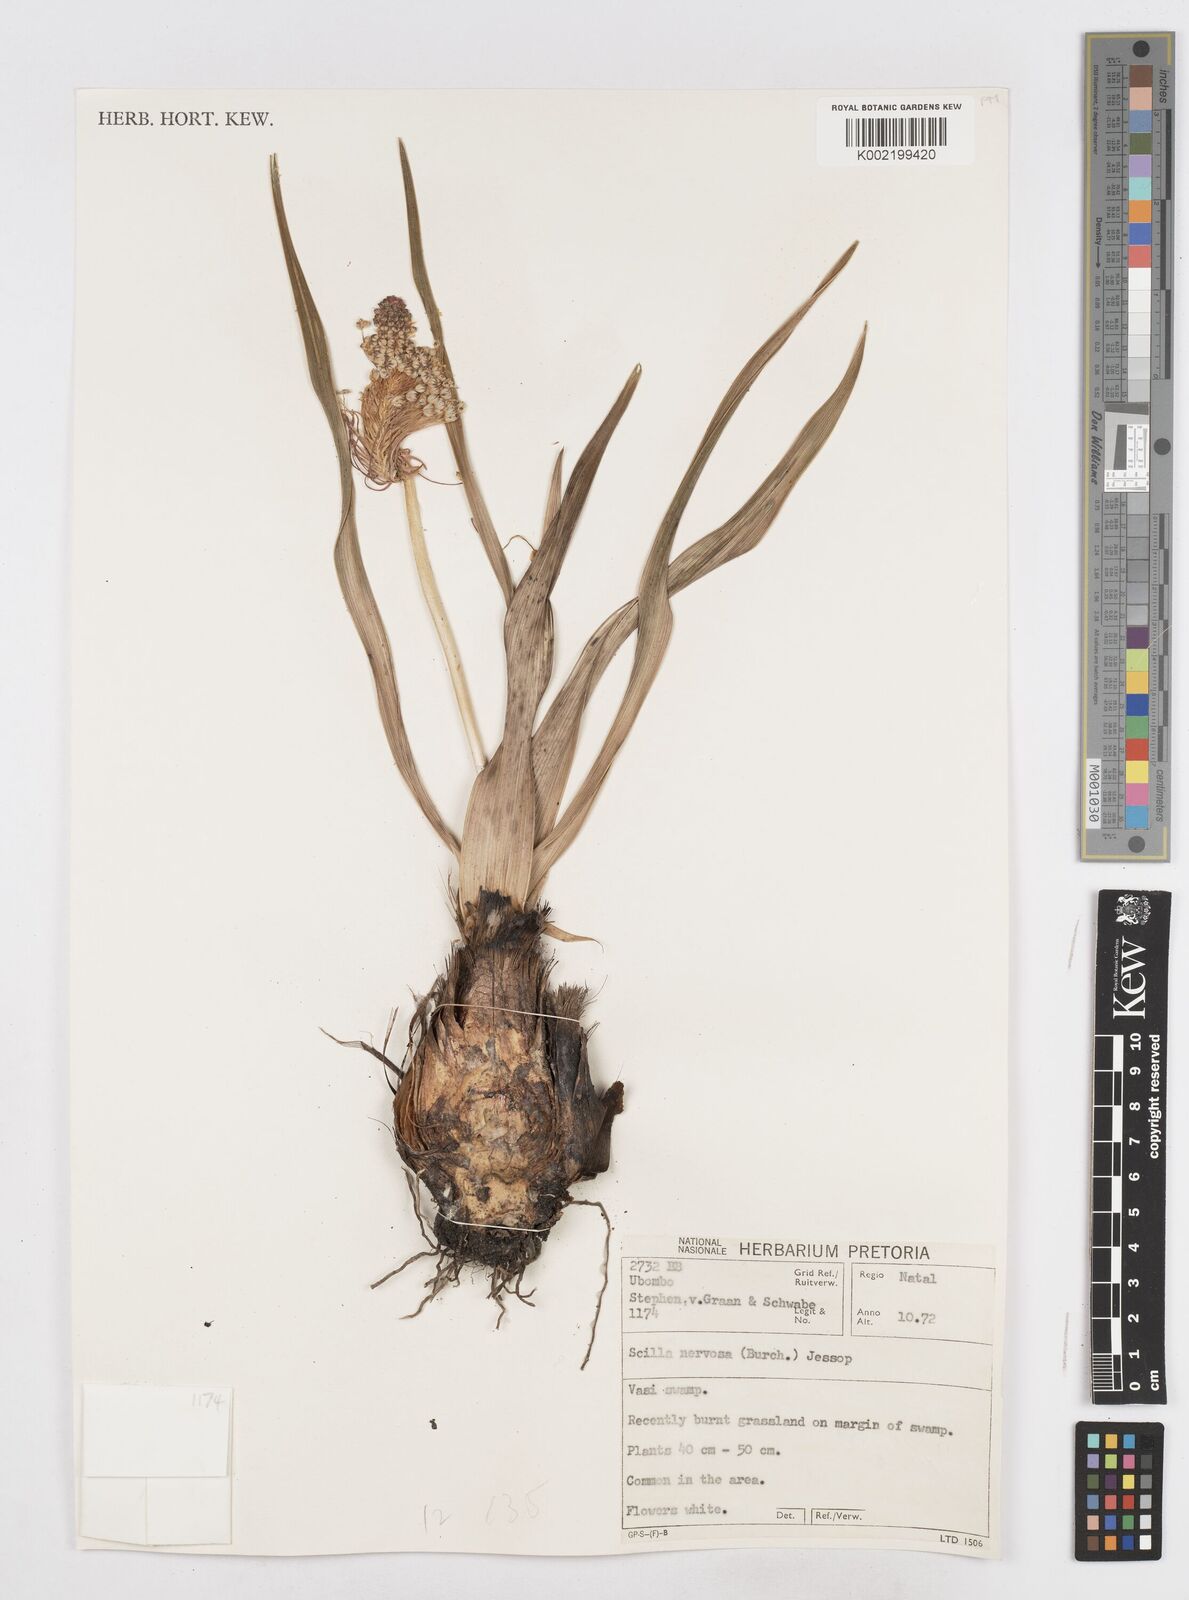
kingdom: Plantae
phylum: Tracheophyta
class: Liliopsida
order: Asparagales
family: Asparagaceae
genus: Schizocarphus
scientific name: Schizocarphus nervosus
